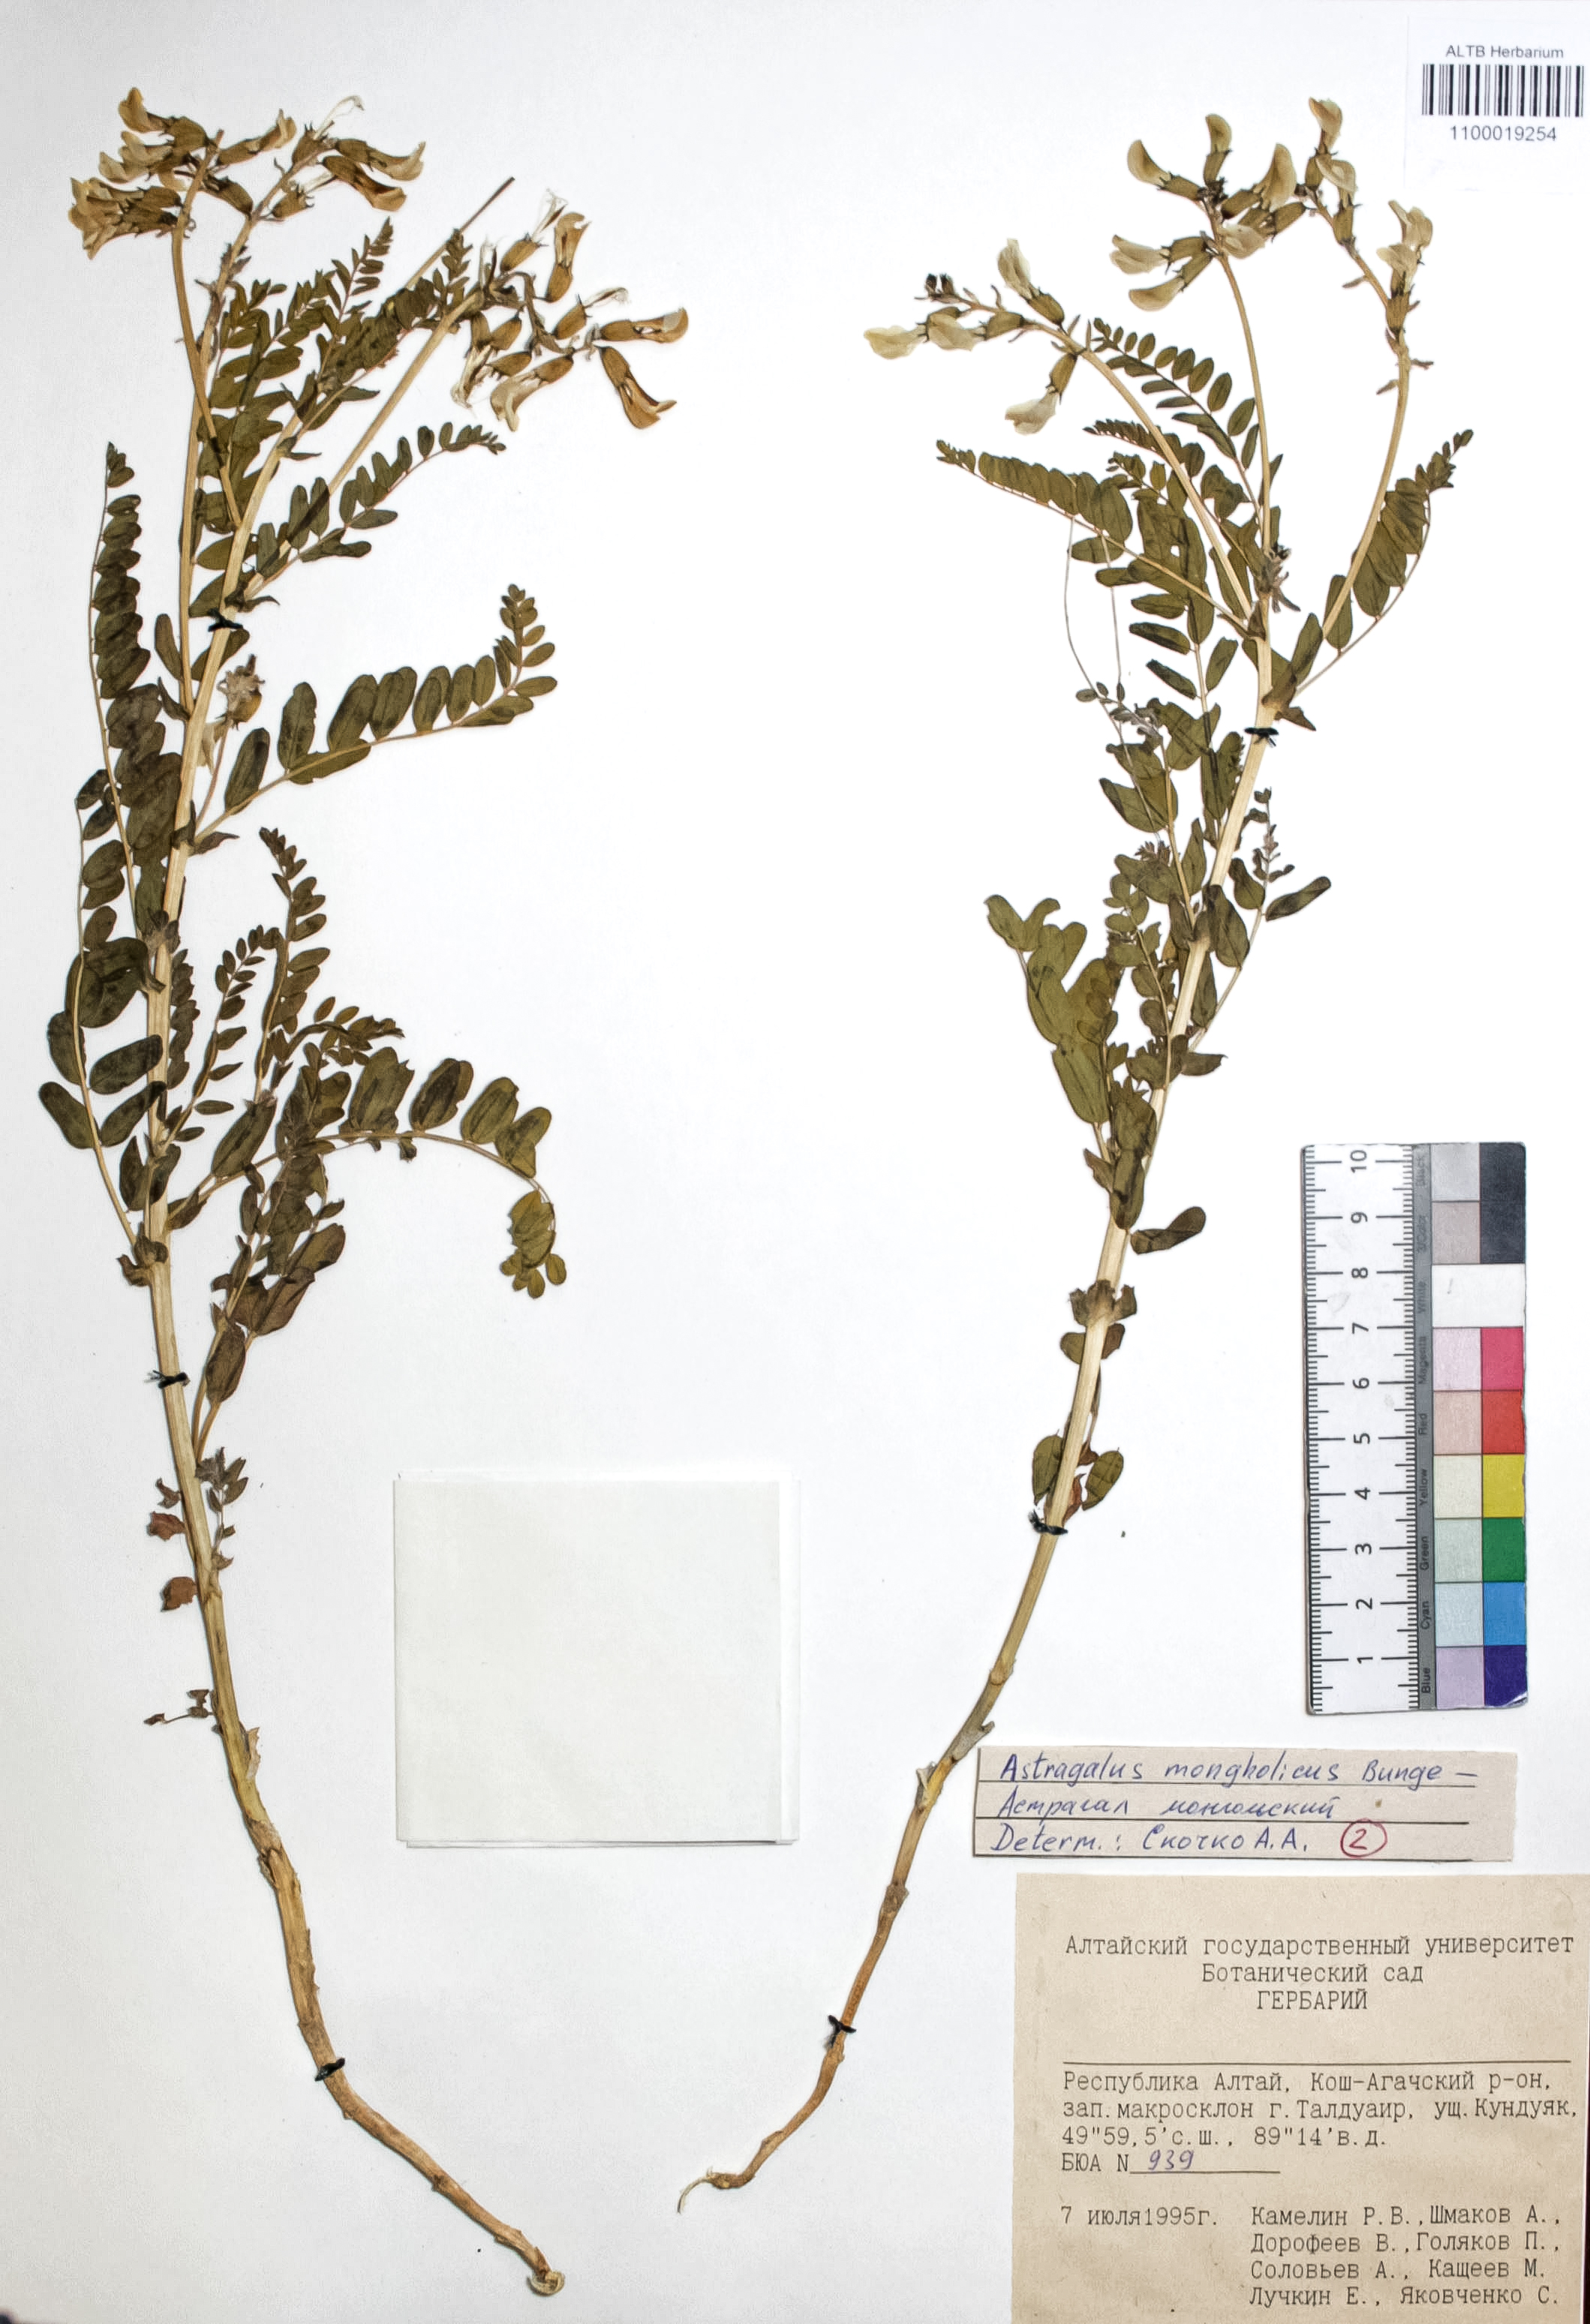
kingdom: Plantae
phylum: Tracheophyta
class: Magnoliopsida
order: Fabales
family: Fabaceae
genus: Astragalus
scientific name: Astragalus mongolicus
